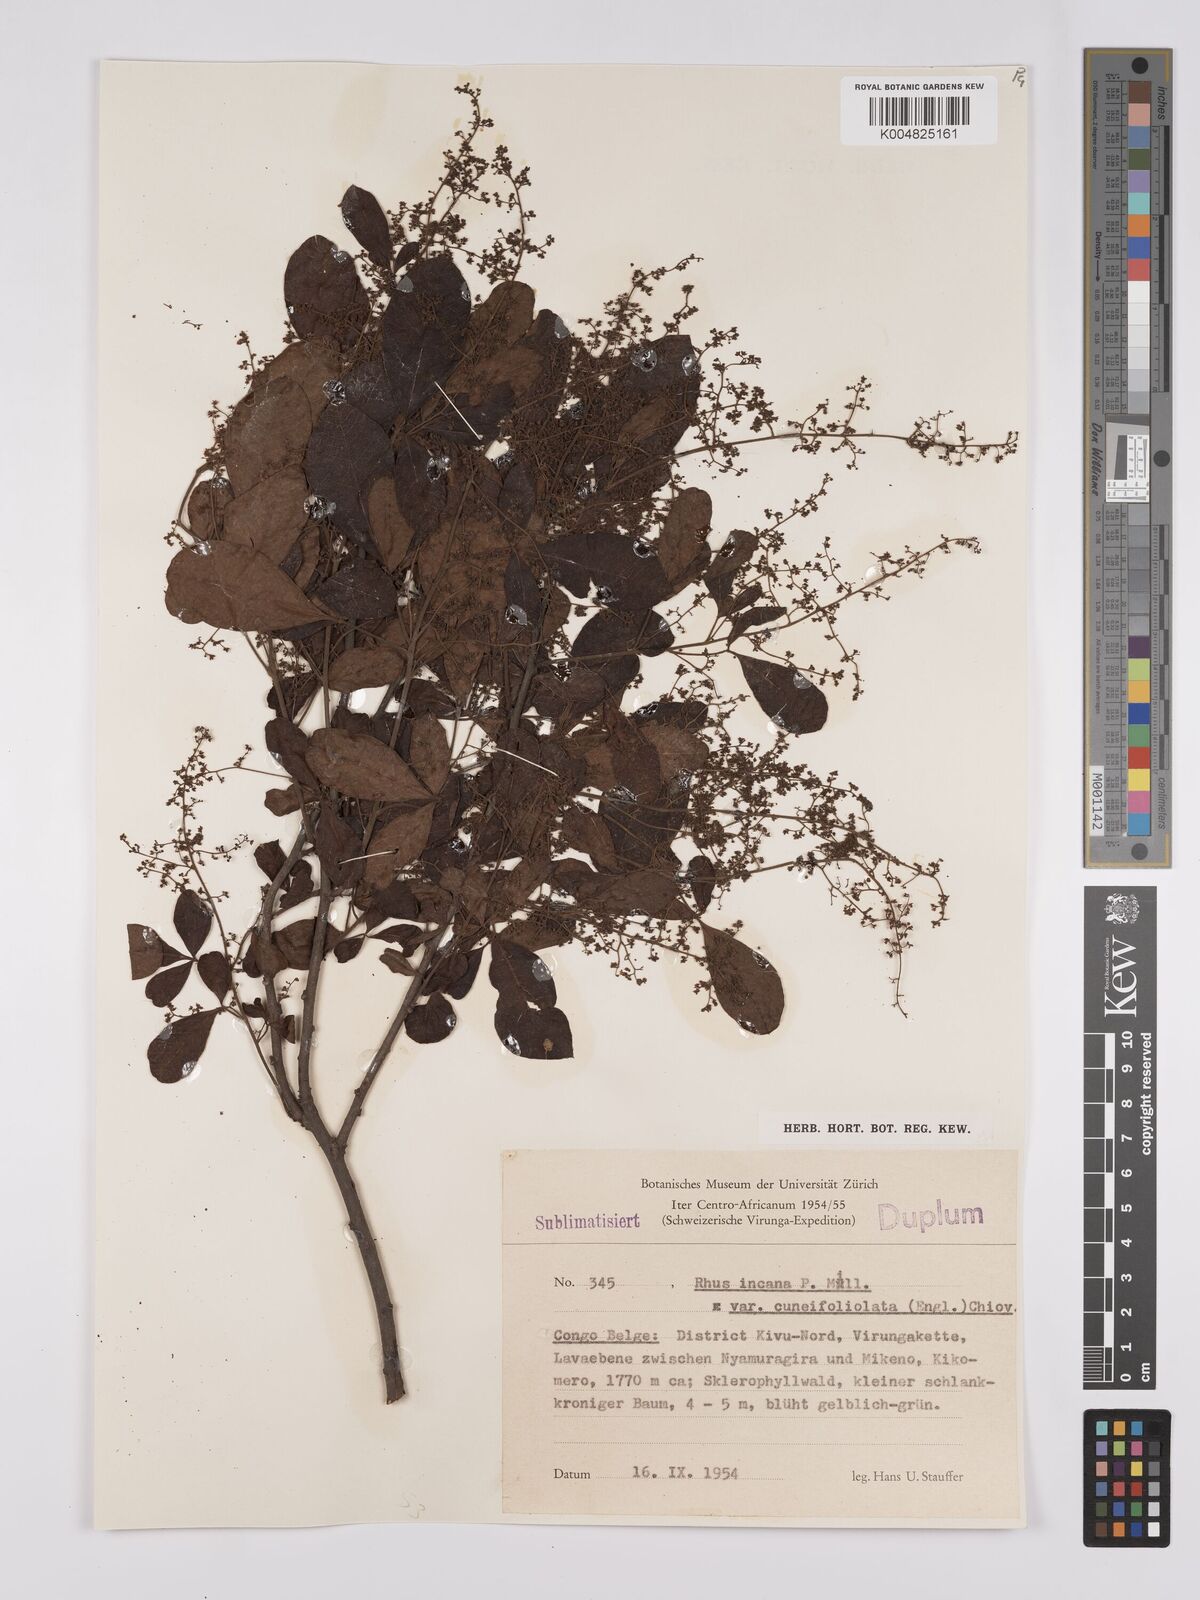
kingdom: Plantae
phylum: Tracheophyta
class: Magnoliopsida
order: Sapindales
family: Anacardiaceae
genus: Searsia
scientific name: Searsia longipes
